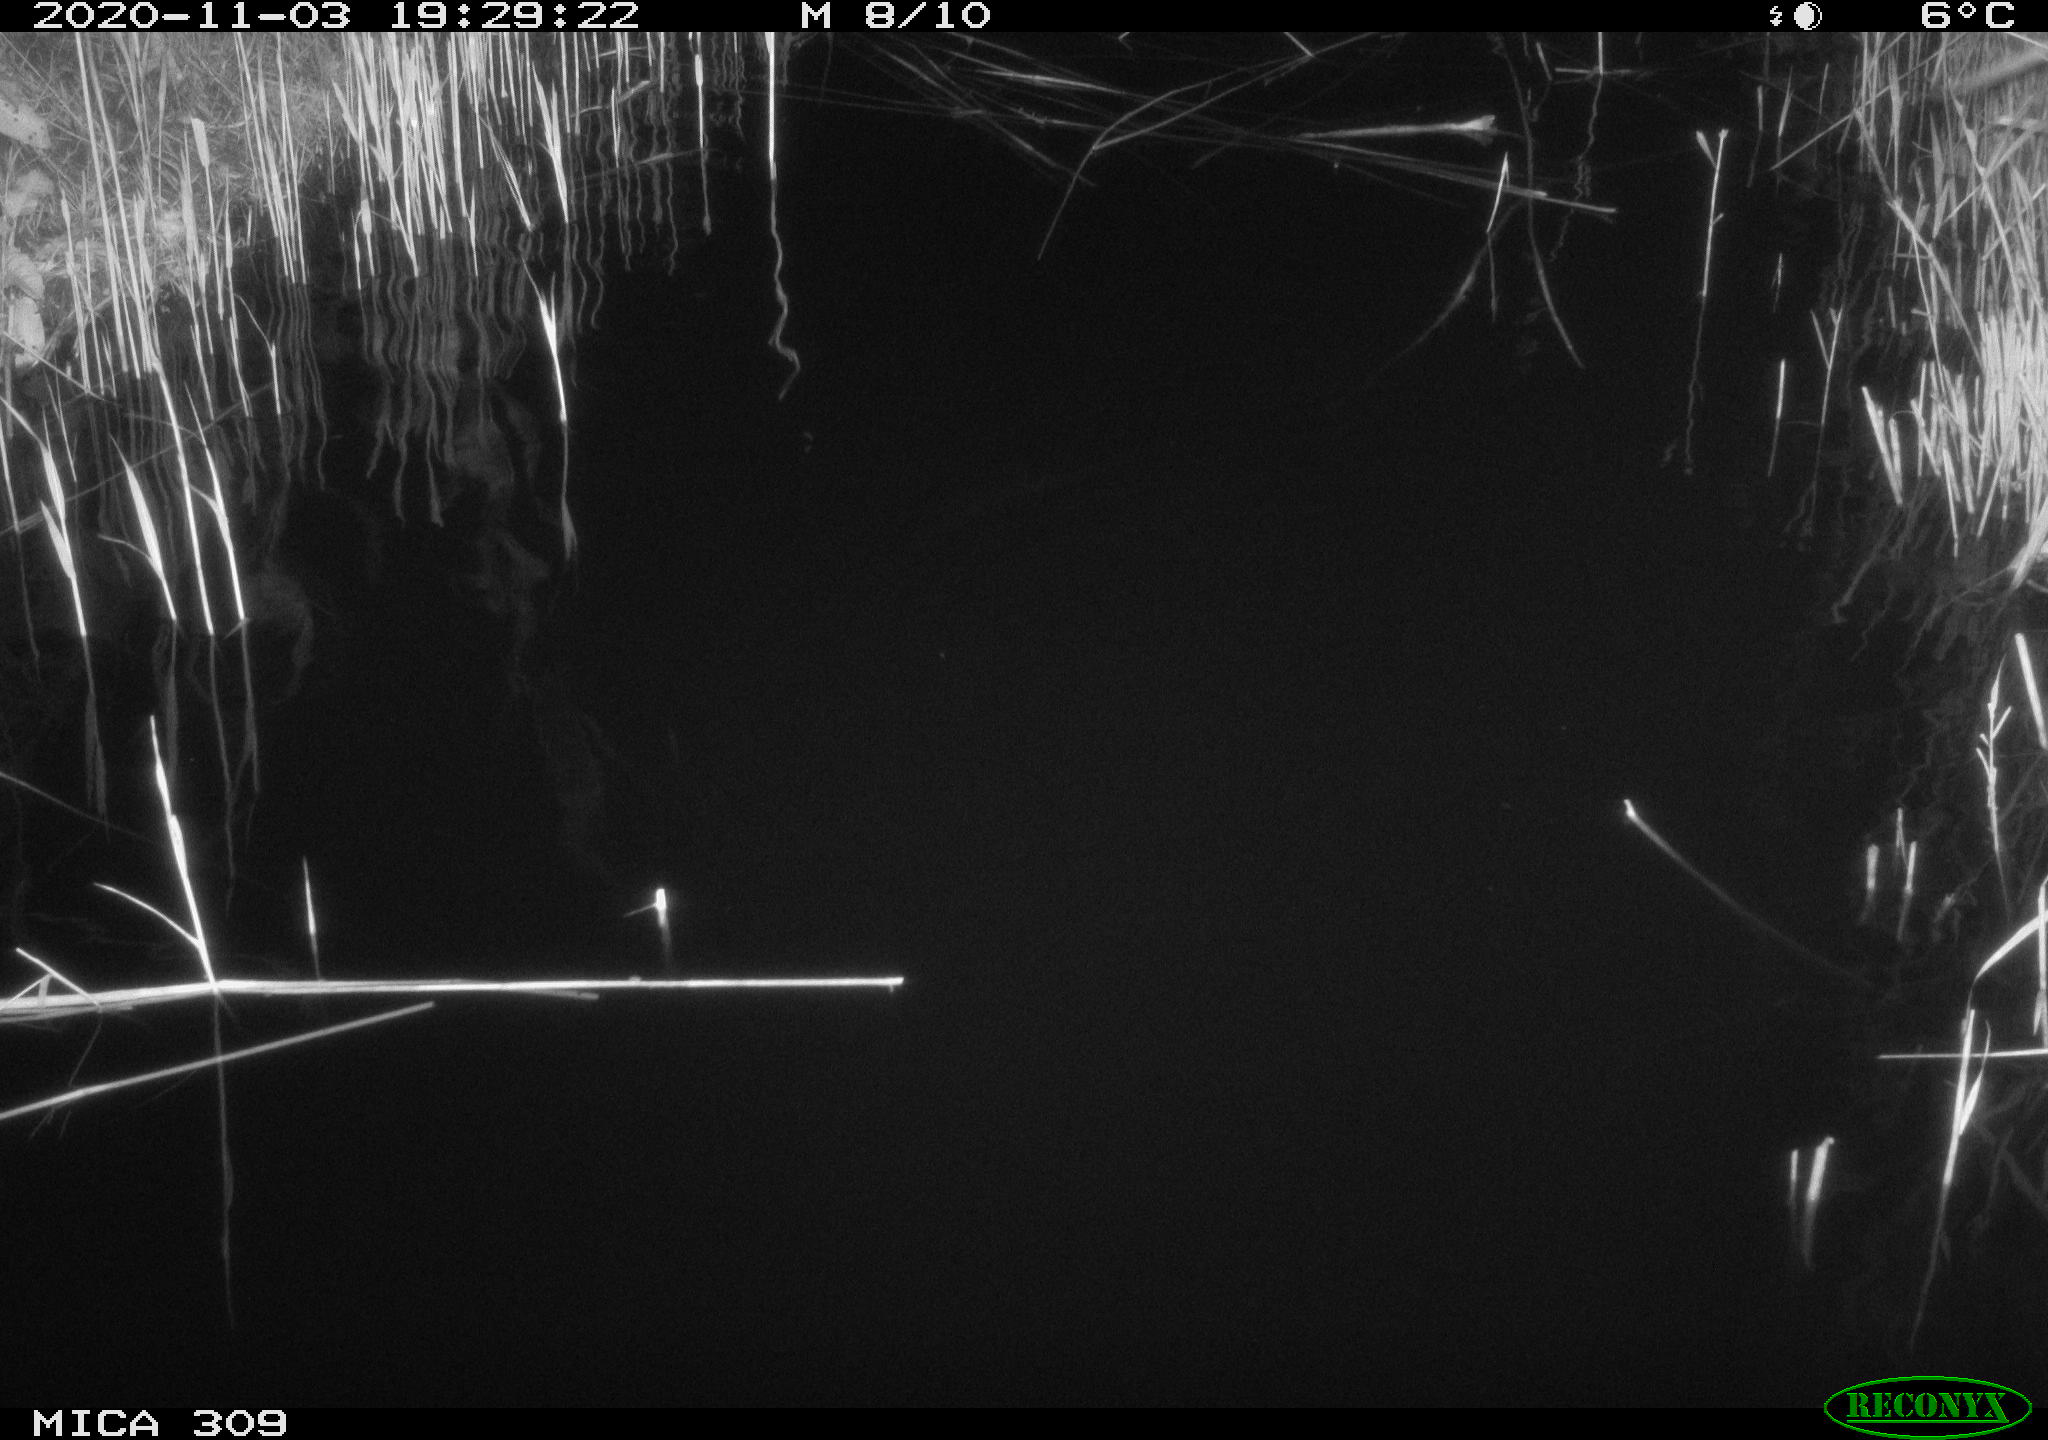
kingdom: Animalia
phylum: Chordata
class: Mammalia
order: Rodentia
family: Muridae
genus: Rattus
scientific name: Rattus norvegicus
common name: Brown rat
